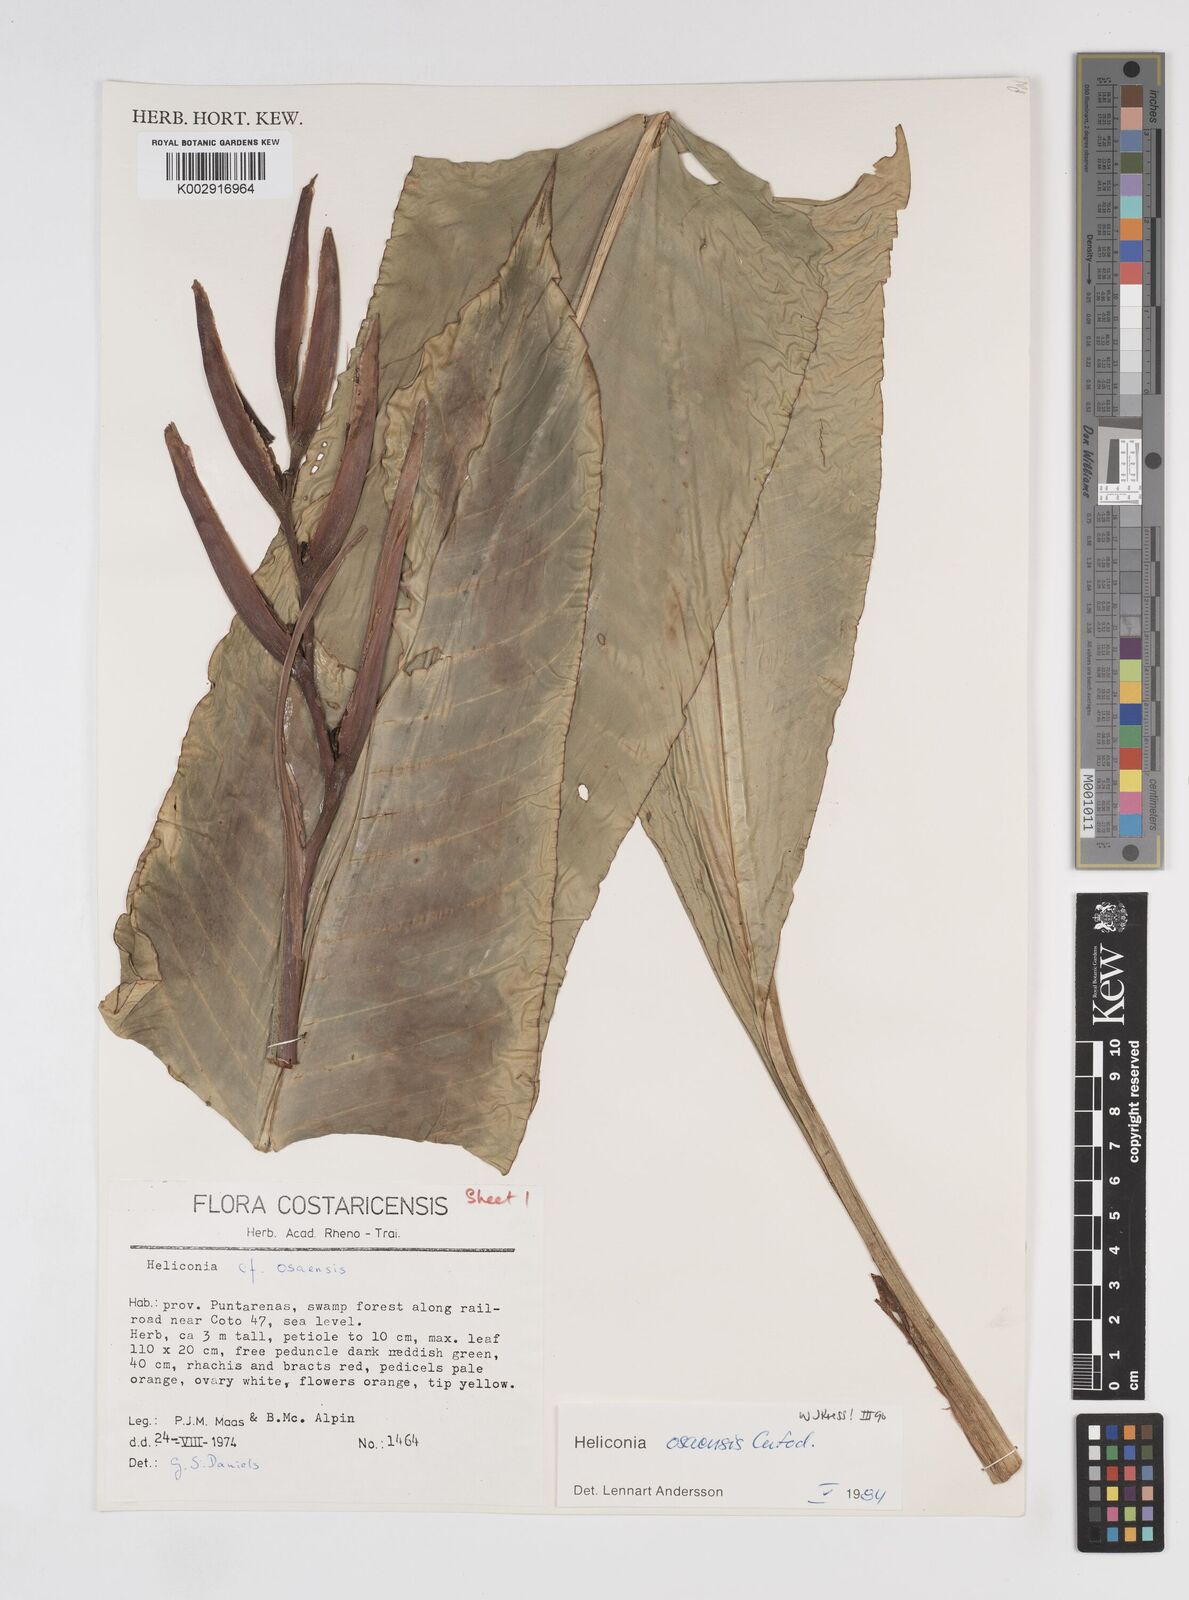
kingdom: Plantae
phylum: Tracheophyta
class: Liliopsida
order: Zingiberales
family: Heliconiaceae
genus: Heliconia
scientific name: Heliconia osaensis
